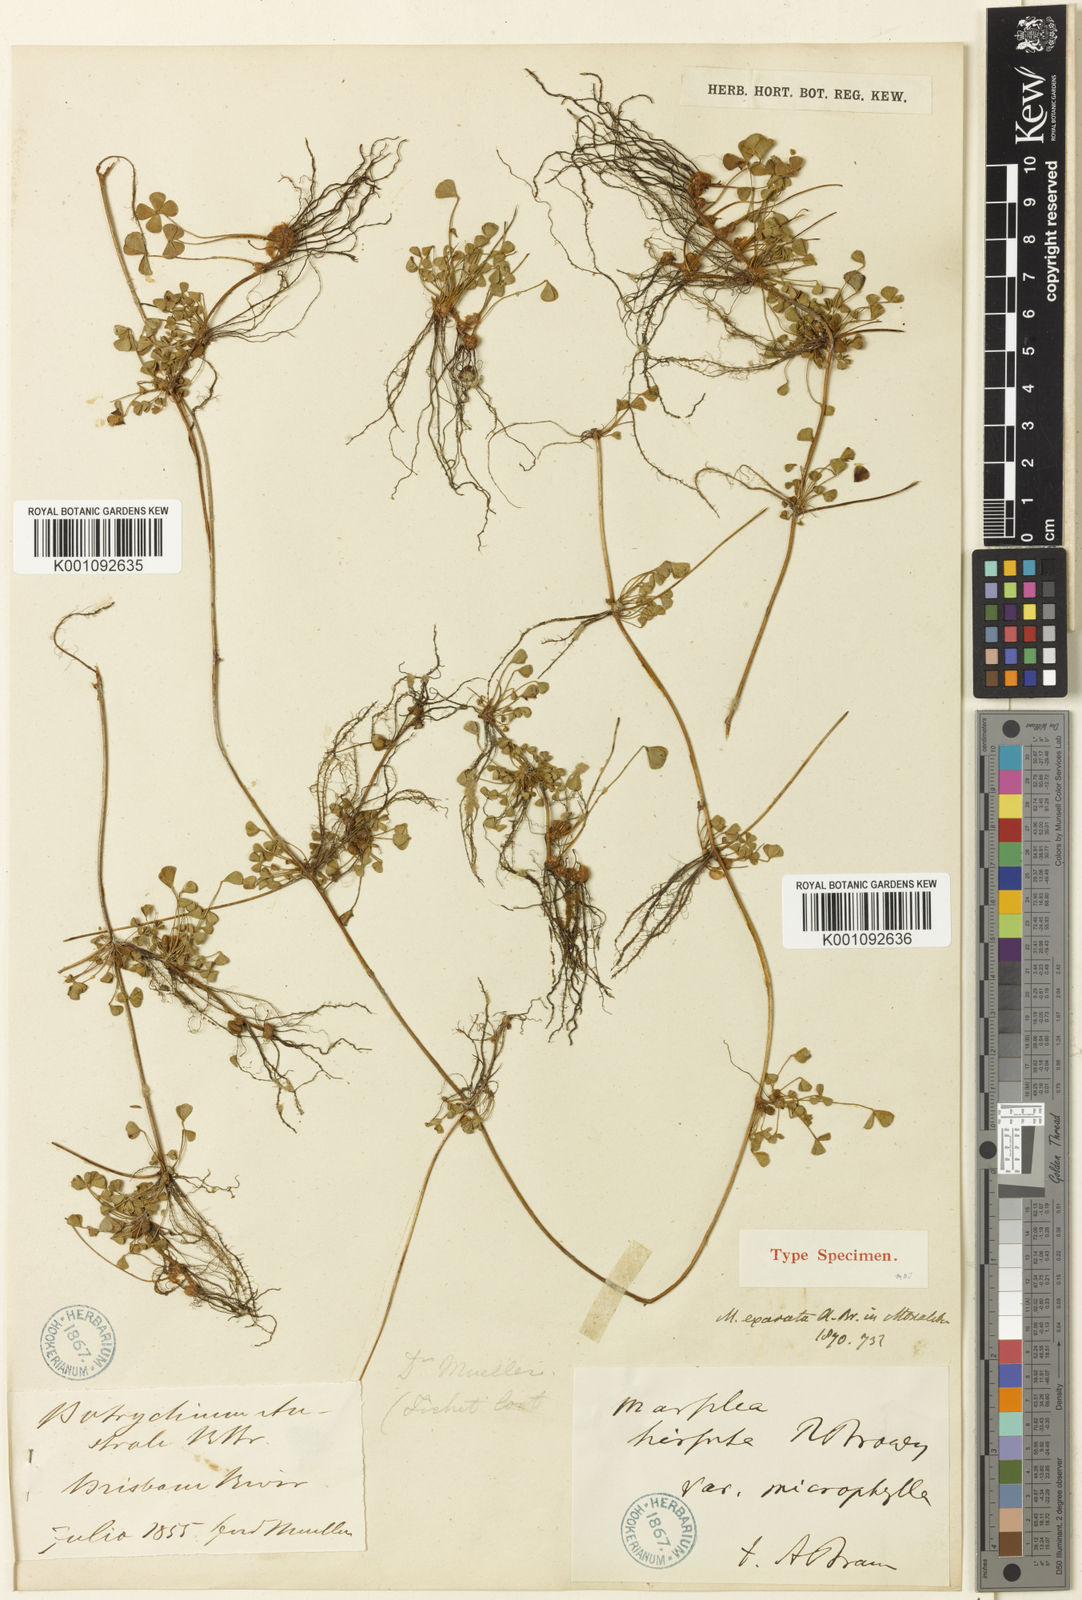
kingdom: Plantae
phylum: Tracheophyta
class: Polypodiopsida
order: Salviniales
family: Marsileaceae
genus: Marsilea
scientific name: Marsilea exarata
